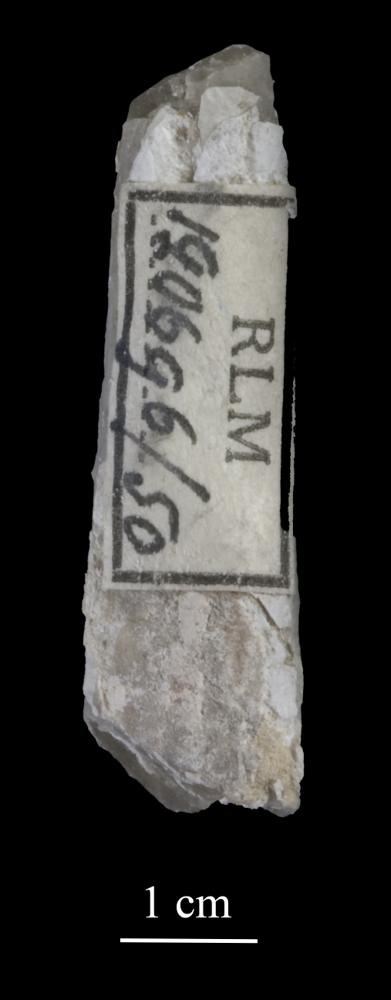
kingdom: Animalia
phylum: Arthropoda
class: Trilobita
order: Asaphida
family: Asaphidae
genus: Isotelus
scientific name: Isotelus
